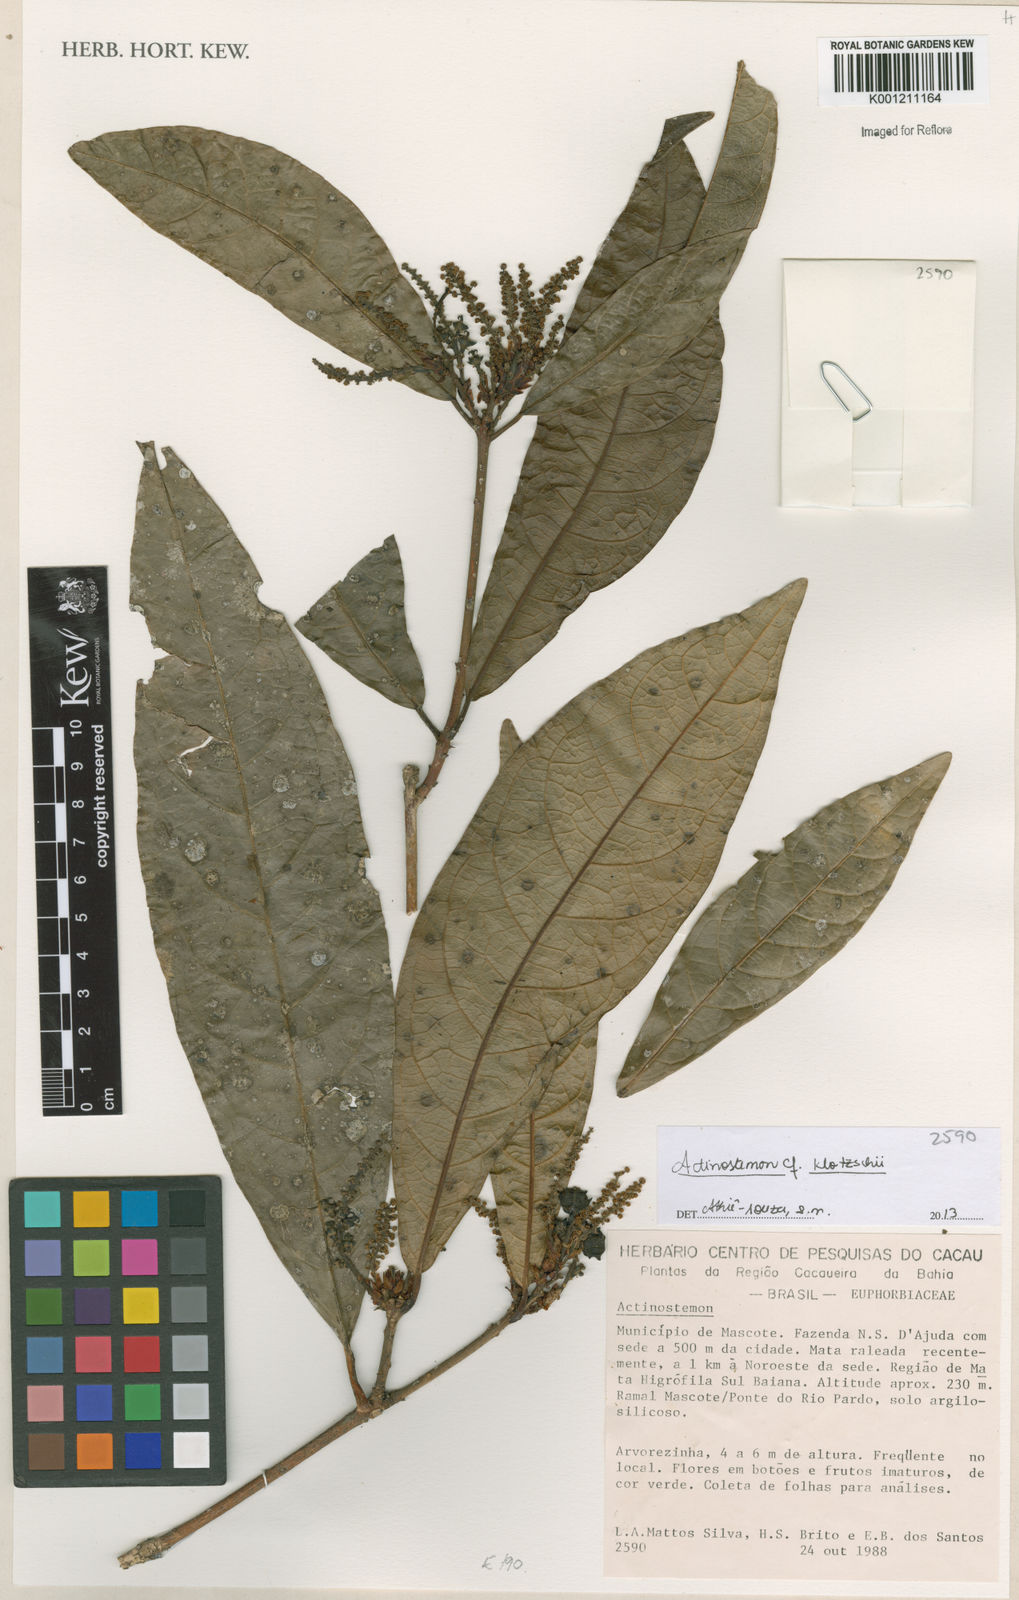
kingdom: Plantae
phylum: Tracheophyta
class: Magnoliopsida
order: Malpighiales
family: Euphorbiaceae
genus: Actinostemon
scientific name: Actinostemon klotzschii
